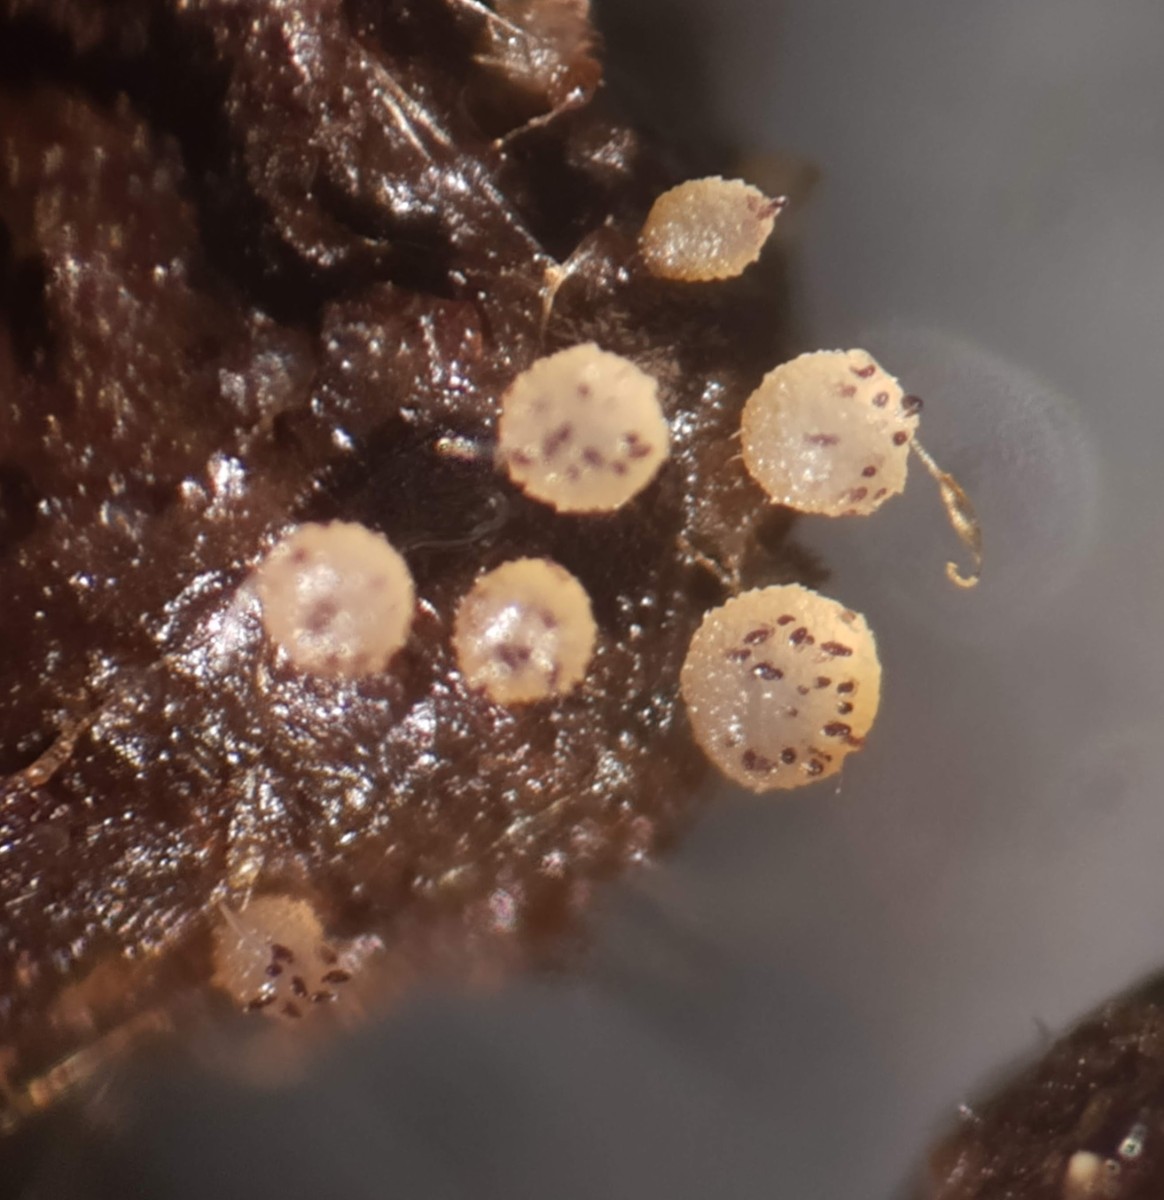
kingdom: Fungi
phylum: Ascomycota
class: Pezizomycetes
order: Pezizales
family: Ascobolaceae
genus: Ascobolus
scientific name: Ascobolus furfuraceus
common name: almindelig prikbæger
